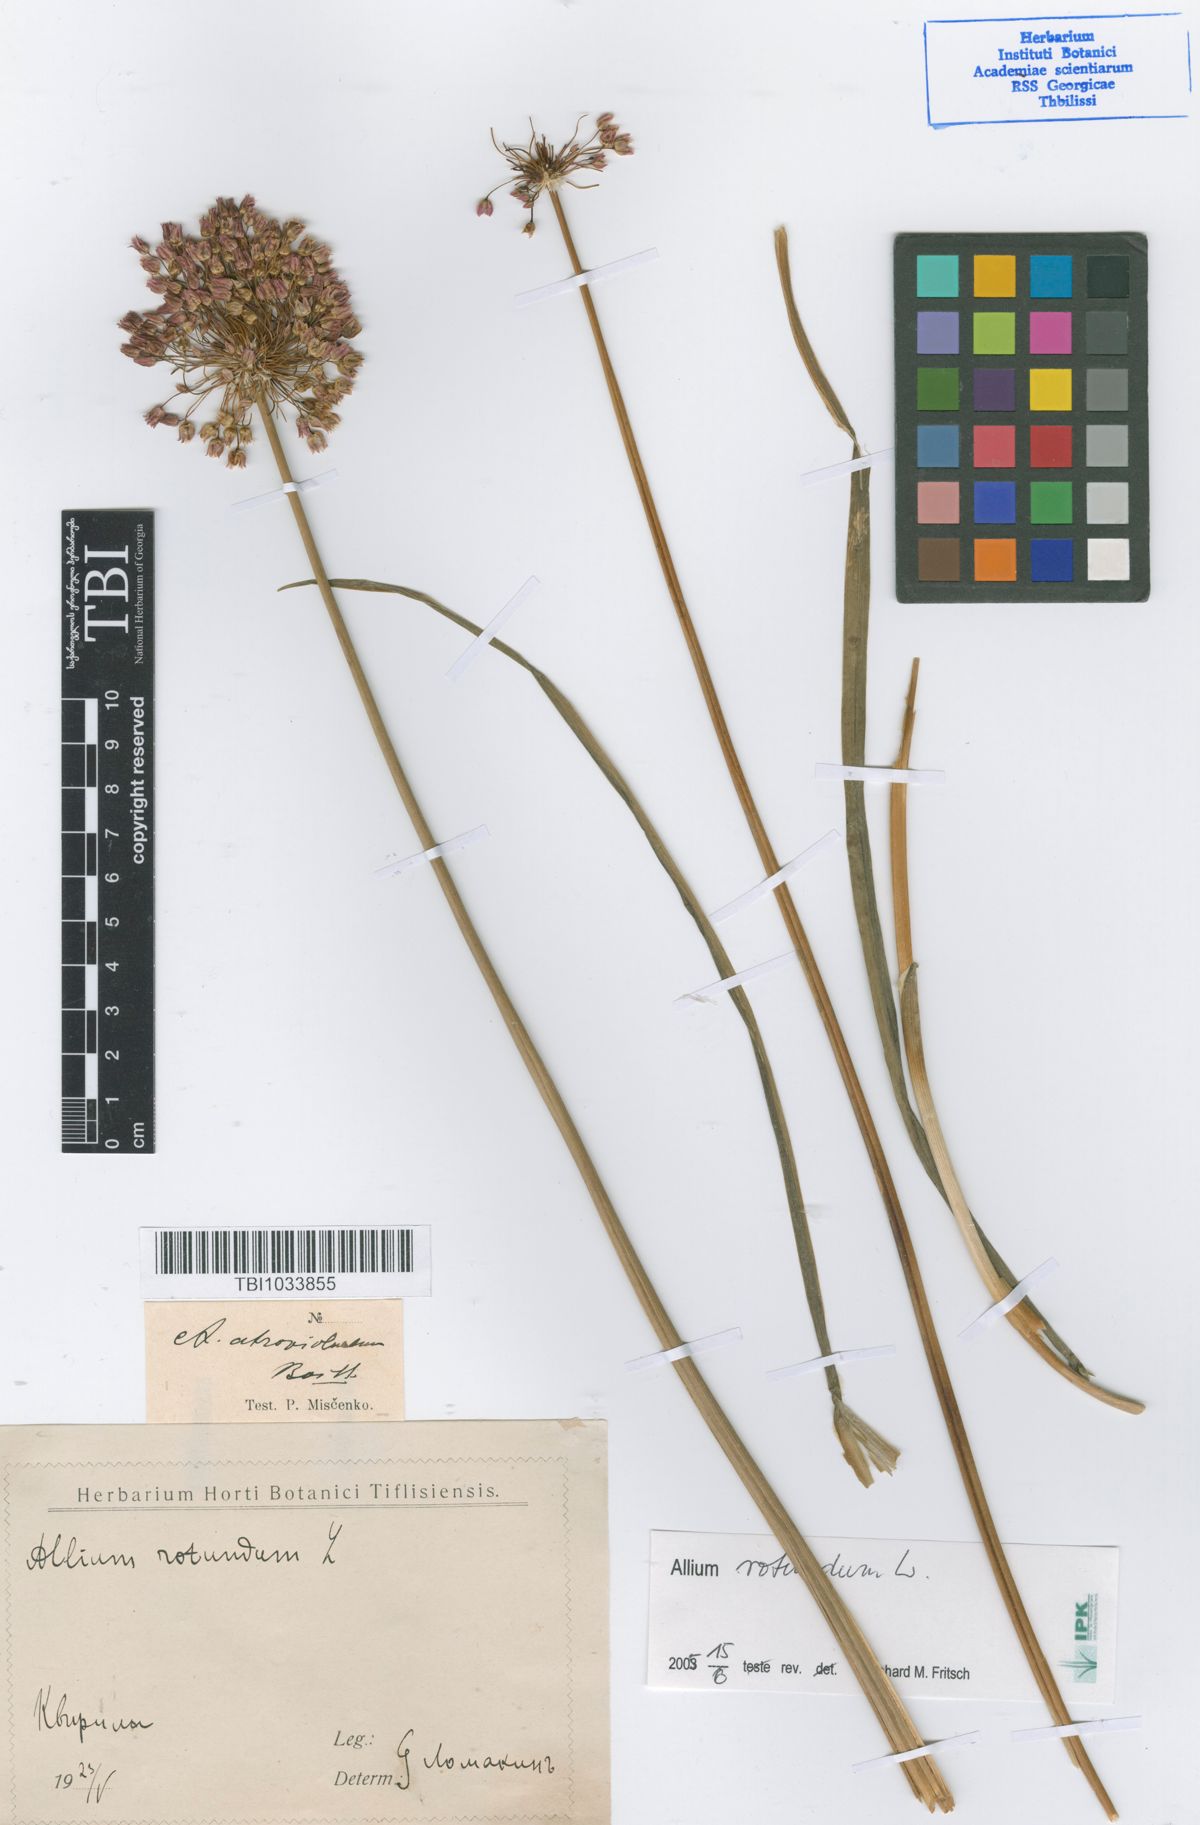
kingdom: Plantae
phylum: Tracheophyta
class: Liliopsida
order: Asparagales
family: Amaryllidaceae
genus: Allium
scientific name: Allium rotundum
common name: Sand leek
